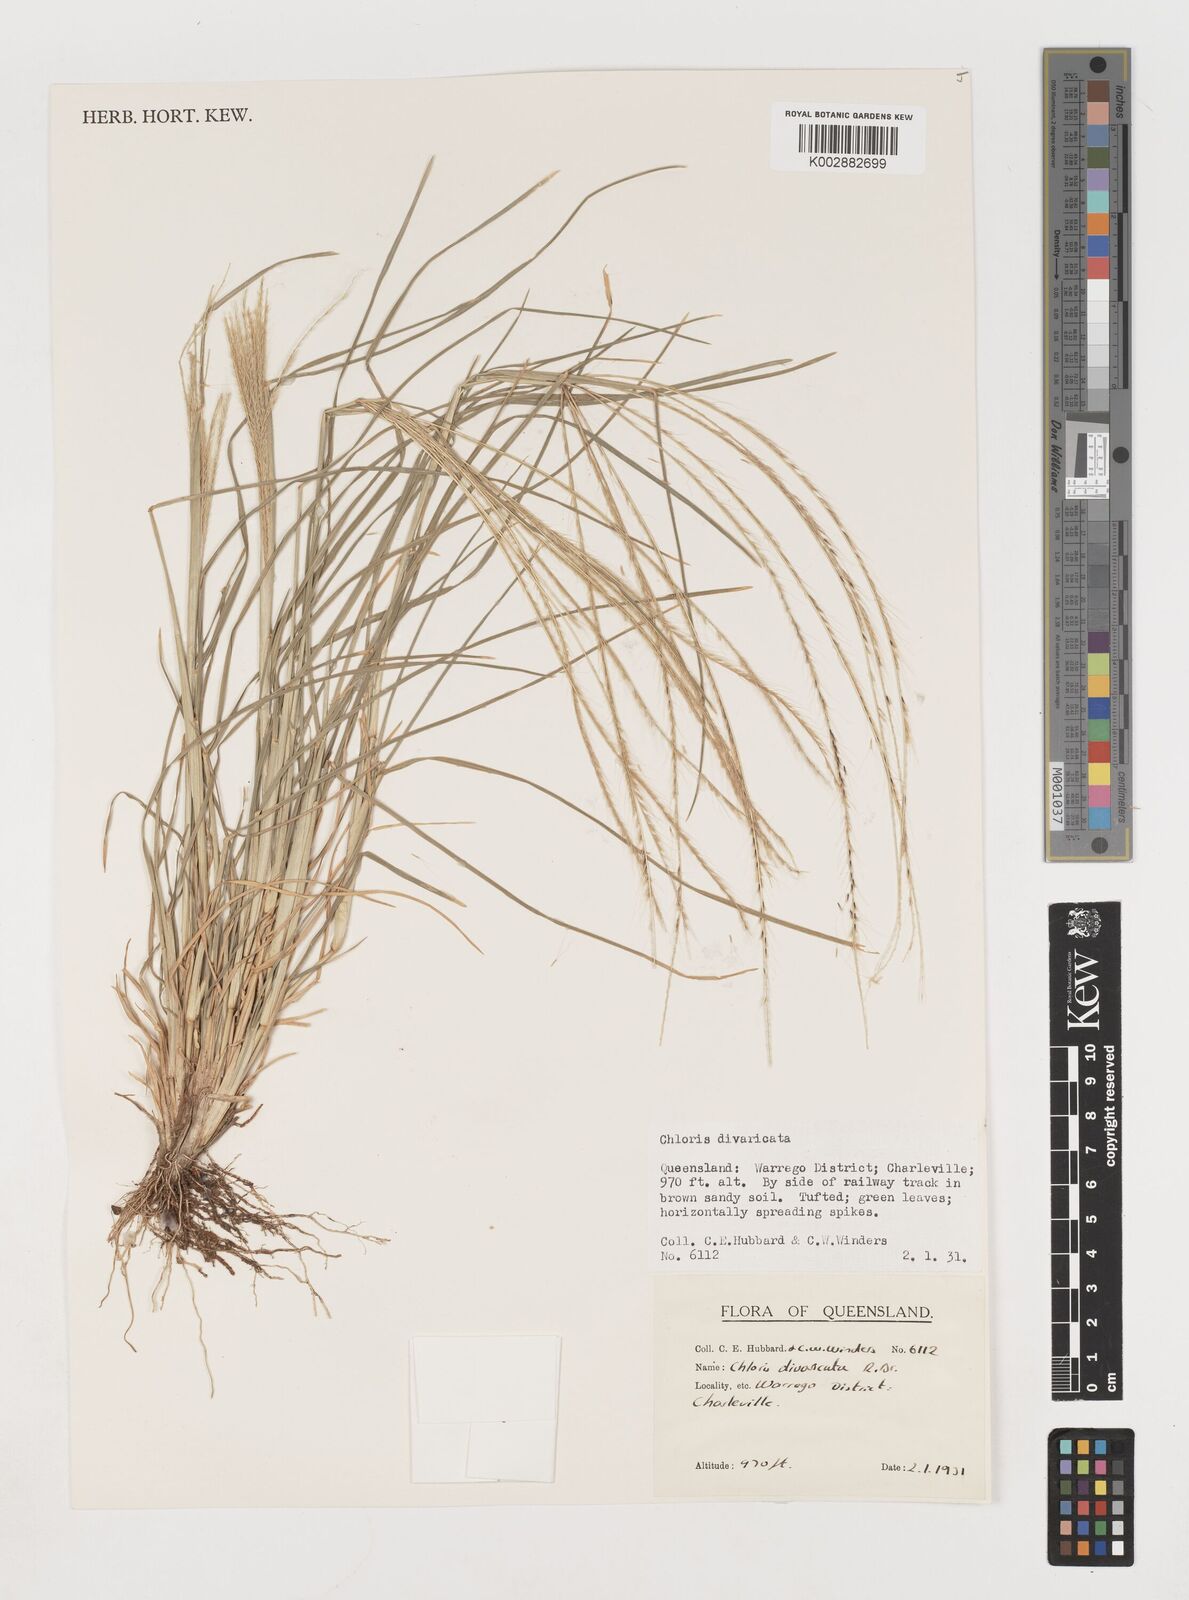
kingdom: Plantae
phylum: Tracheophyta
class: Liliopsida
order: Poales
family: Poaceae
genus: Chloris
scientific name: Chloris divaricata
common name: Spreading windmill grass
